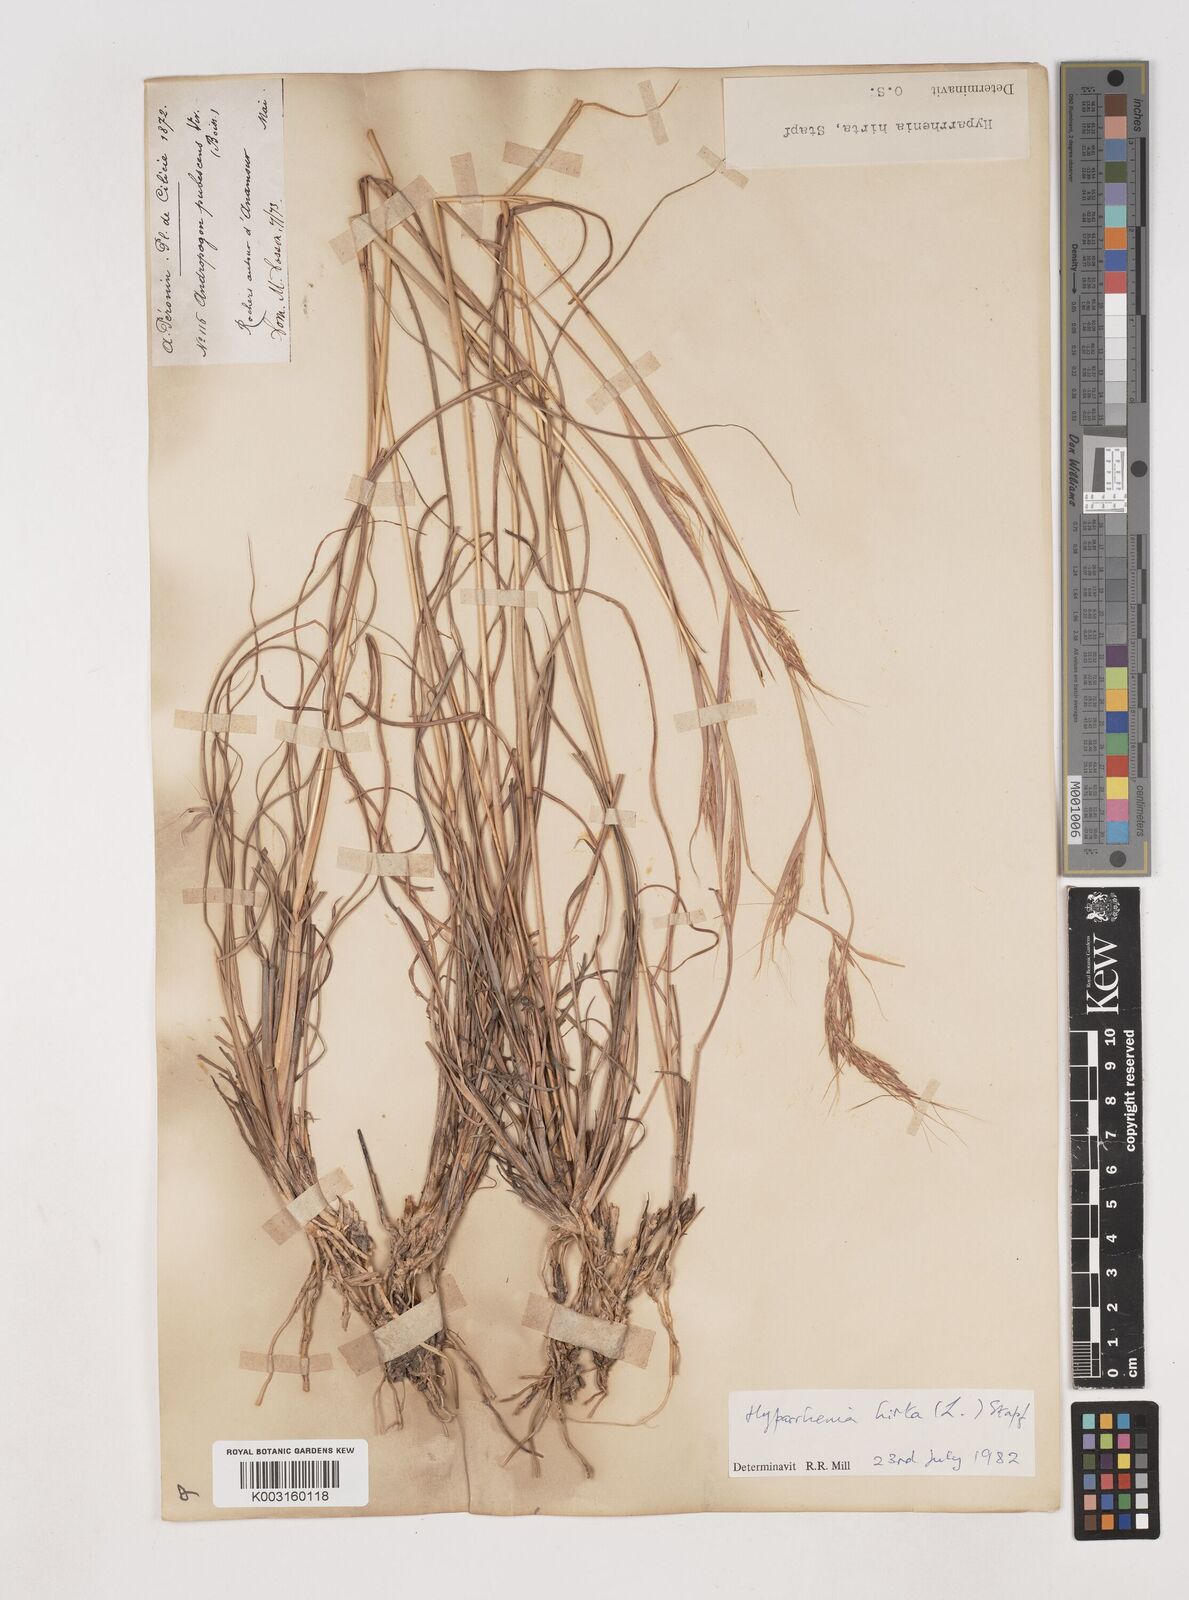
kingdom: Plantae
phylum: Tracheophyta
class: Liliopsida
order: Poales
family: Poaceae
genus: Hyparrhenia
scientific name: Hyparrhenia hirta
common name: Thatching grass
